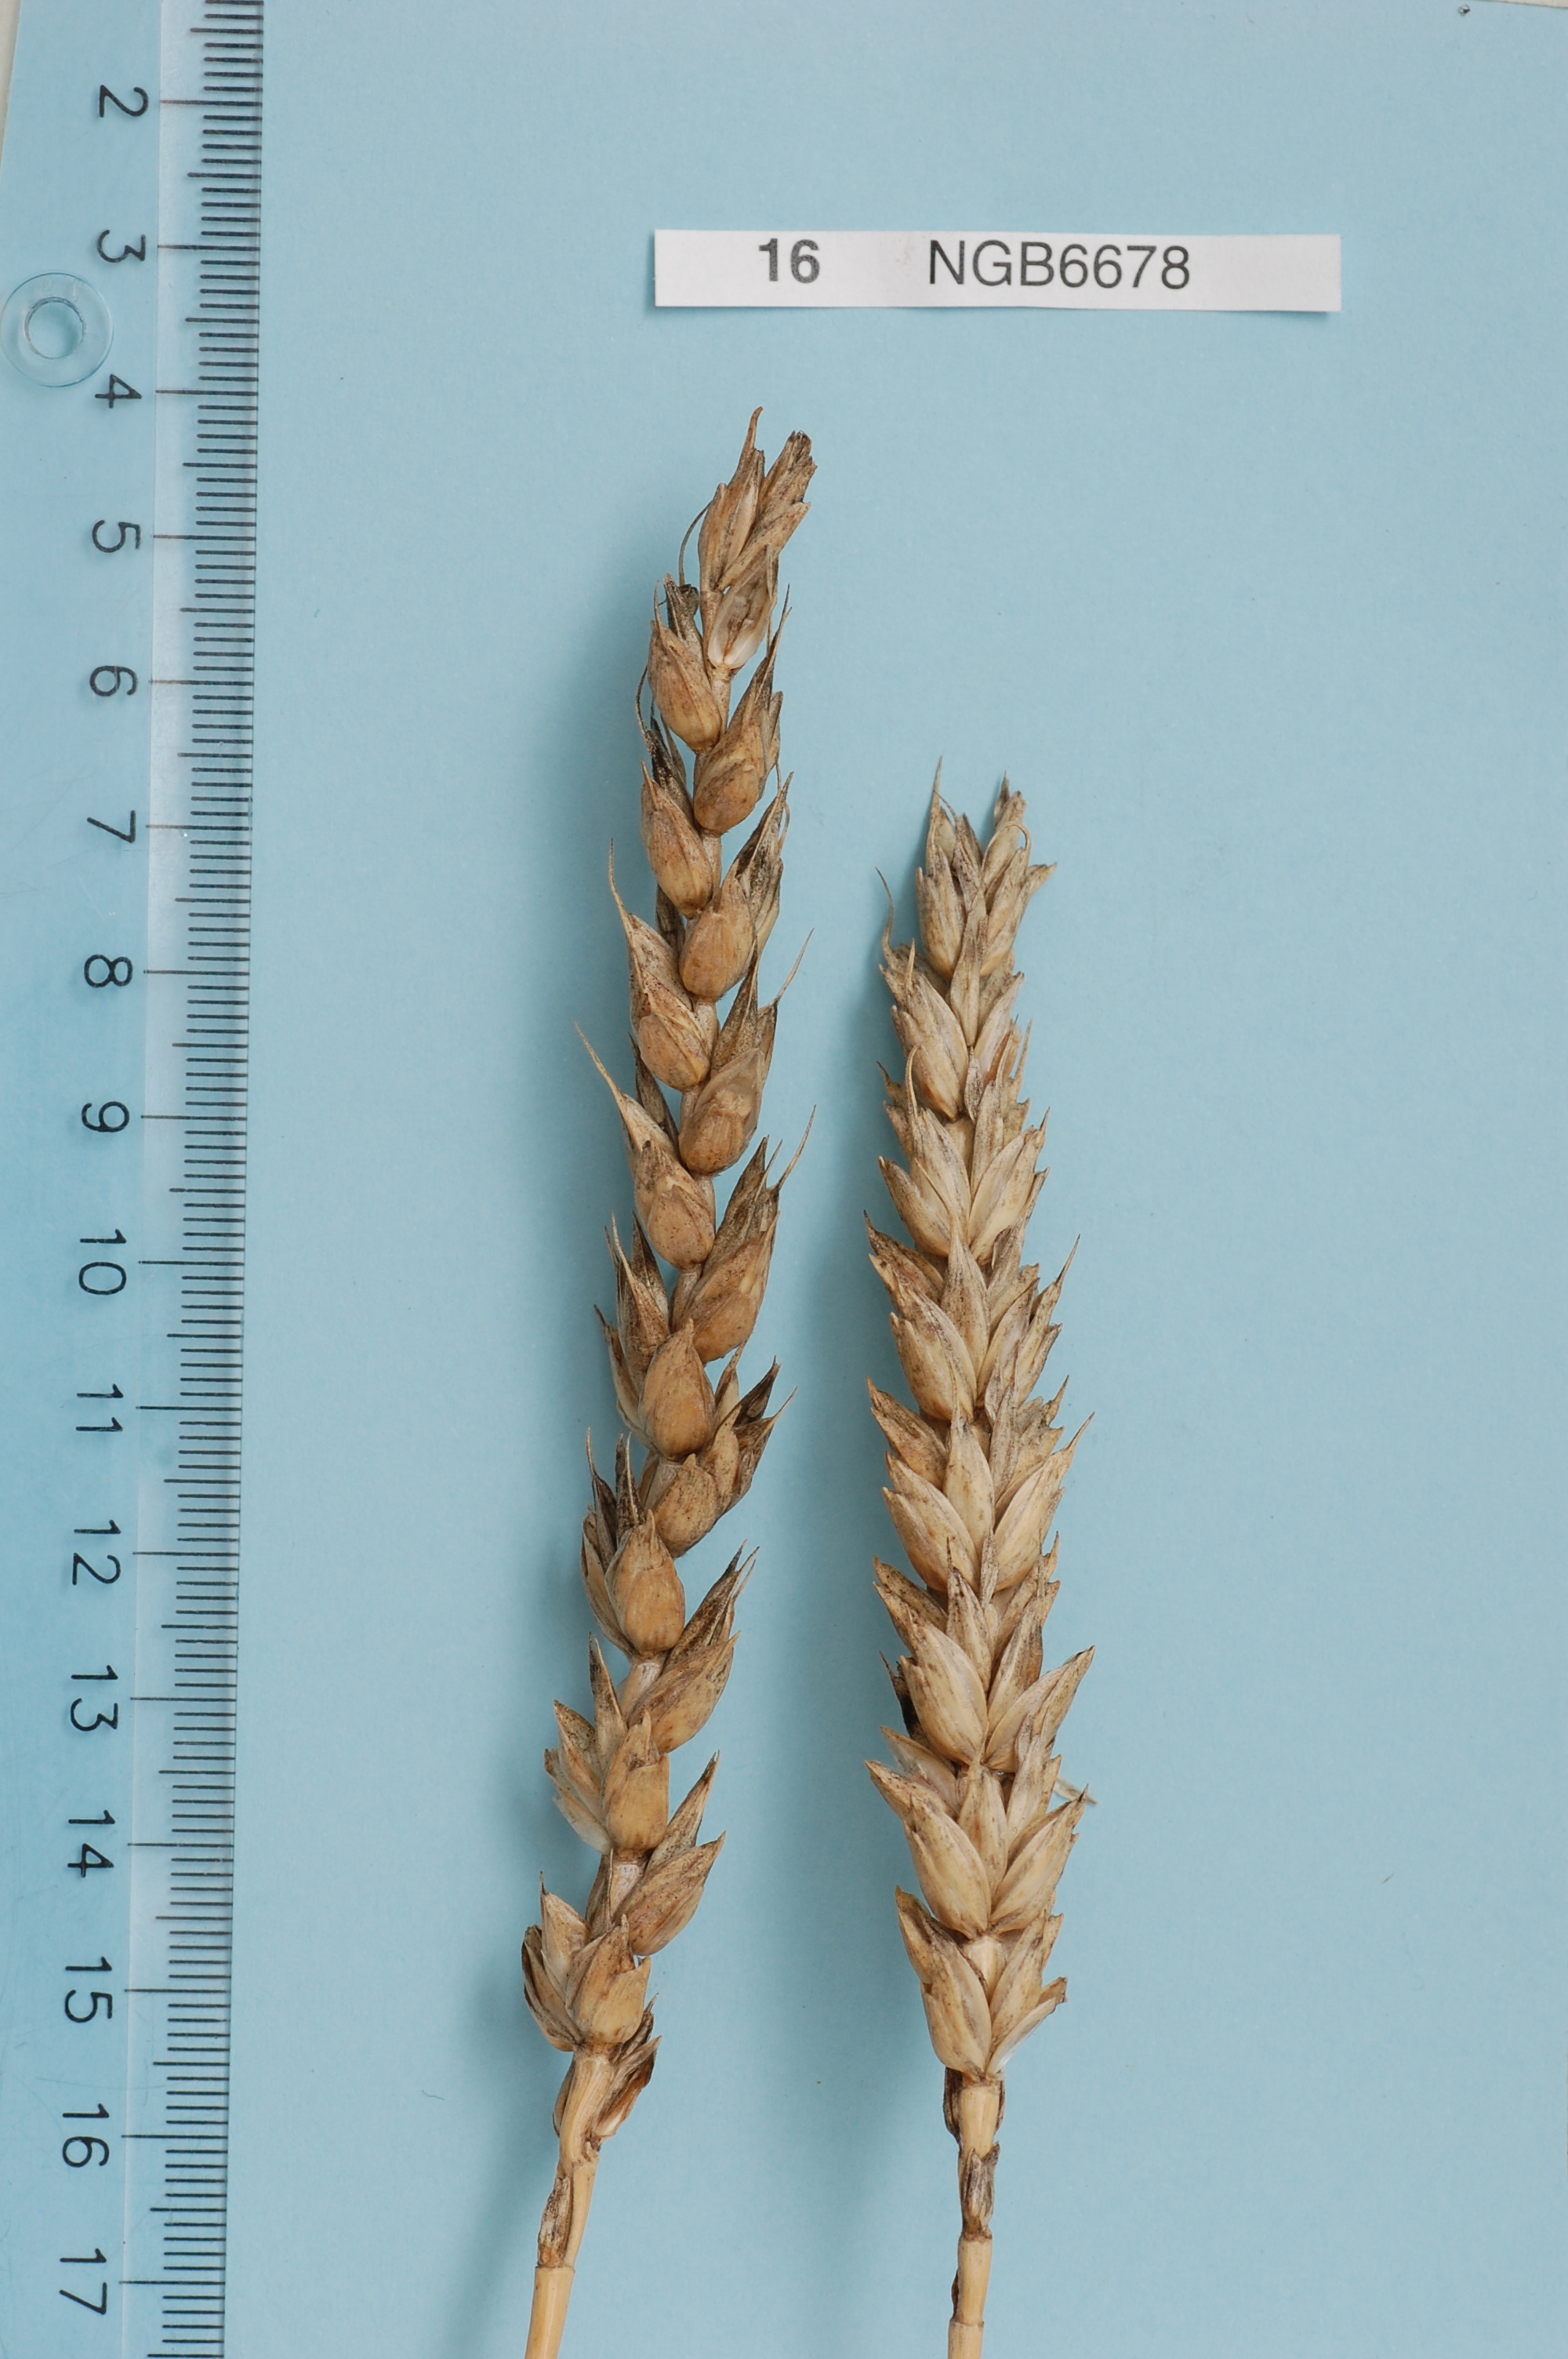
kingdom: Plantae
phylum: Tracheophyta
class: Liliopsida
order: Poales
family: Poaceae
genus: Triticum
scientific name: Triticum aestivum
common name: Common wheat
